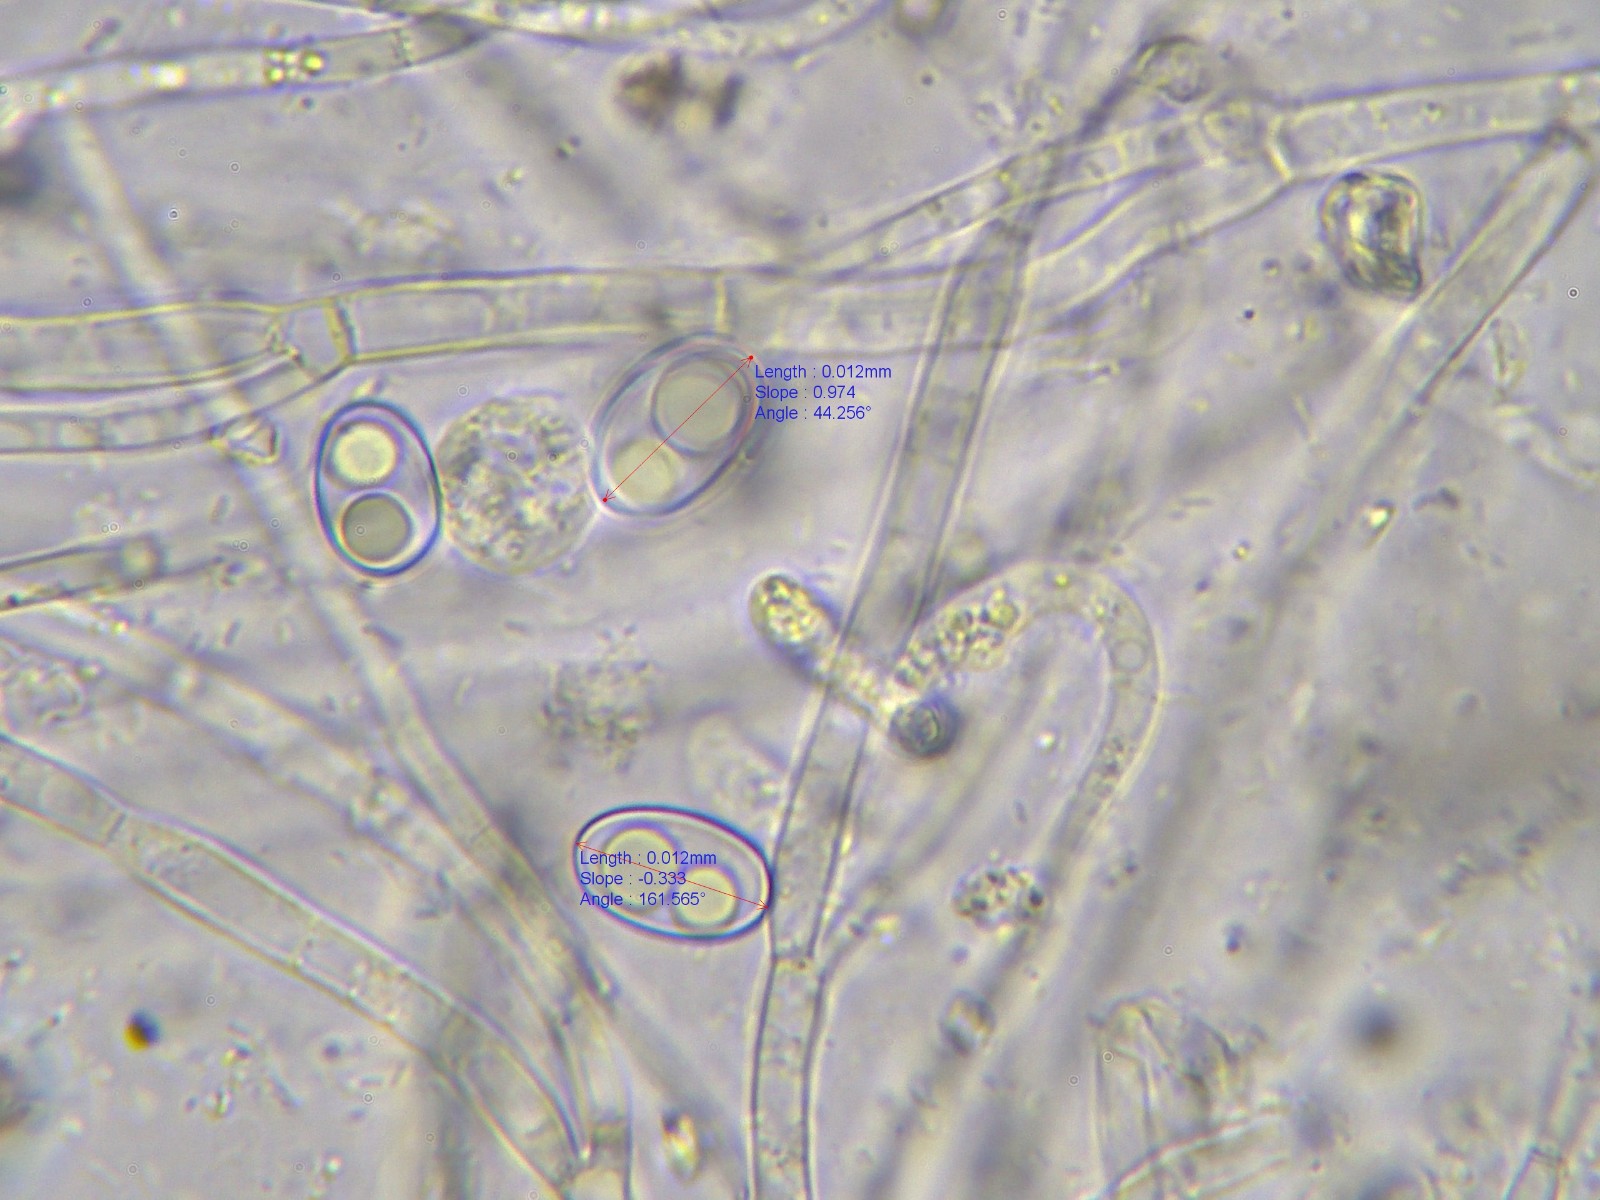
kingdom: Fungi
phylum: Ascomycota
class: Pezizomycetes
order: Pezizales
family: Otideaceae
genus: Otidea
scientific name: Otidea formicarum
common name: myretue-ørebæger
